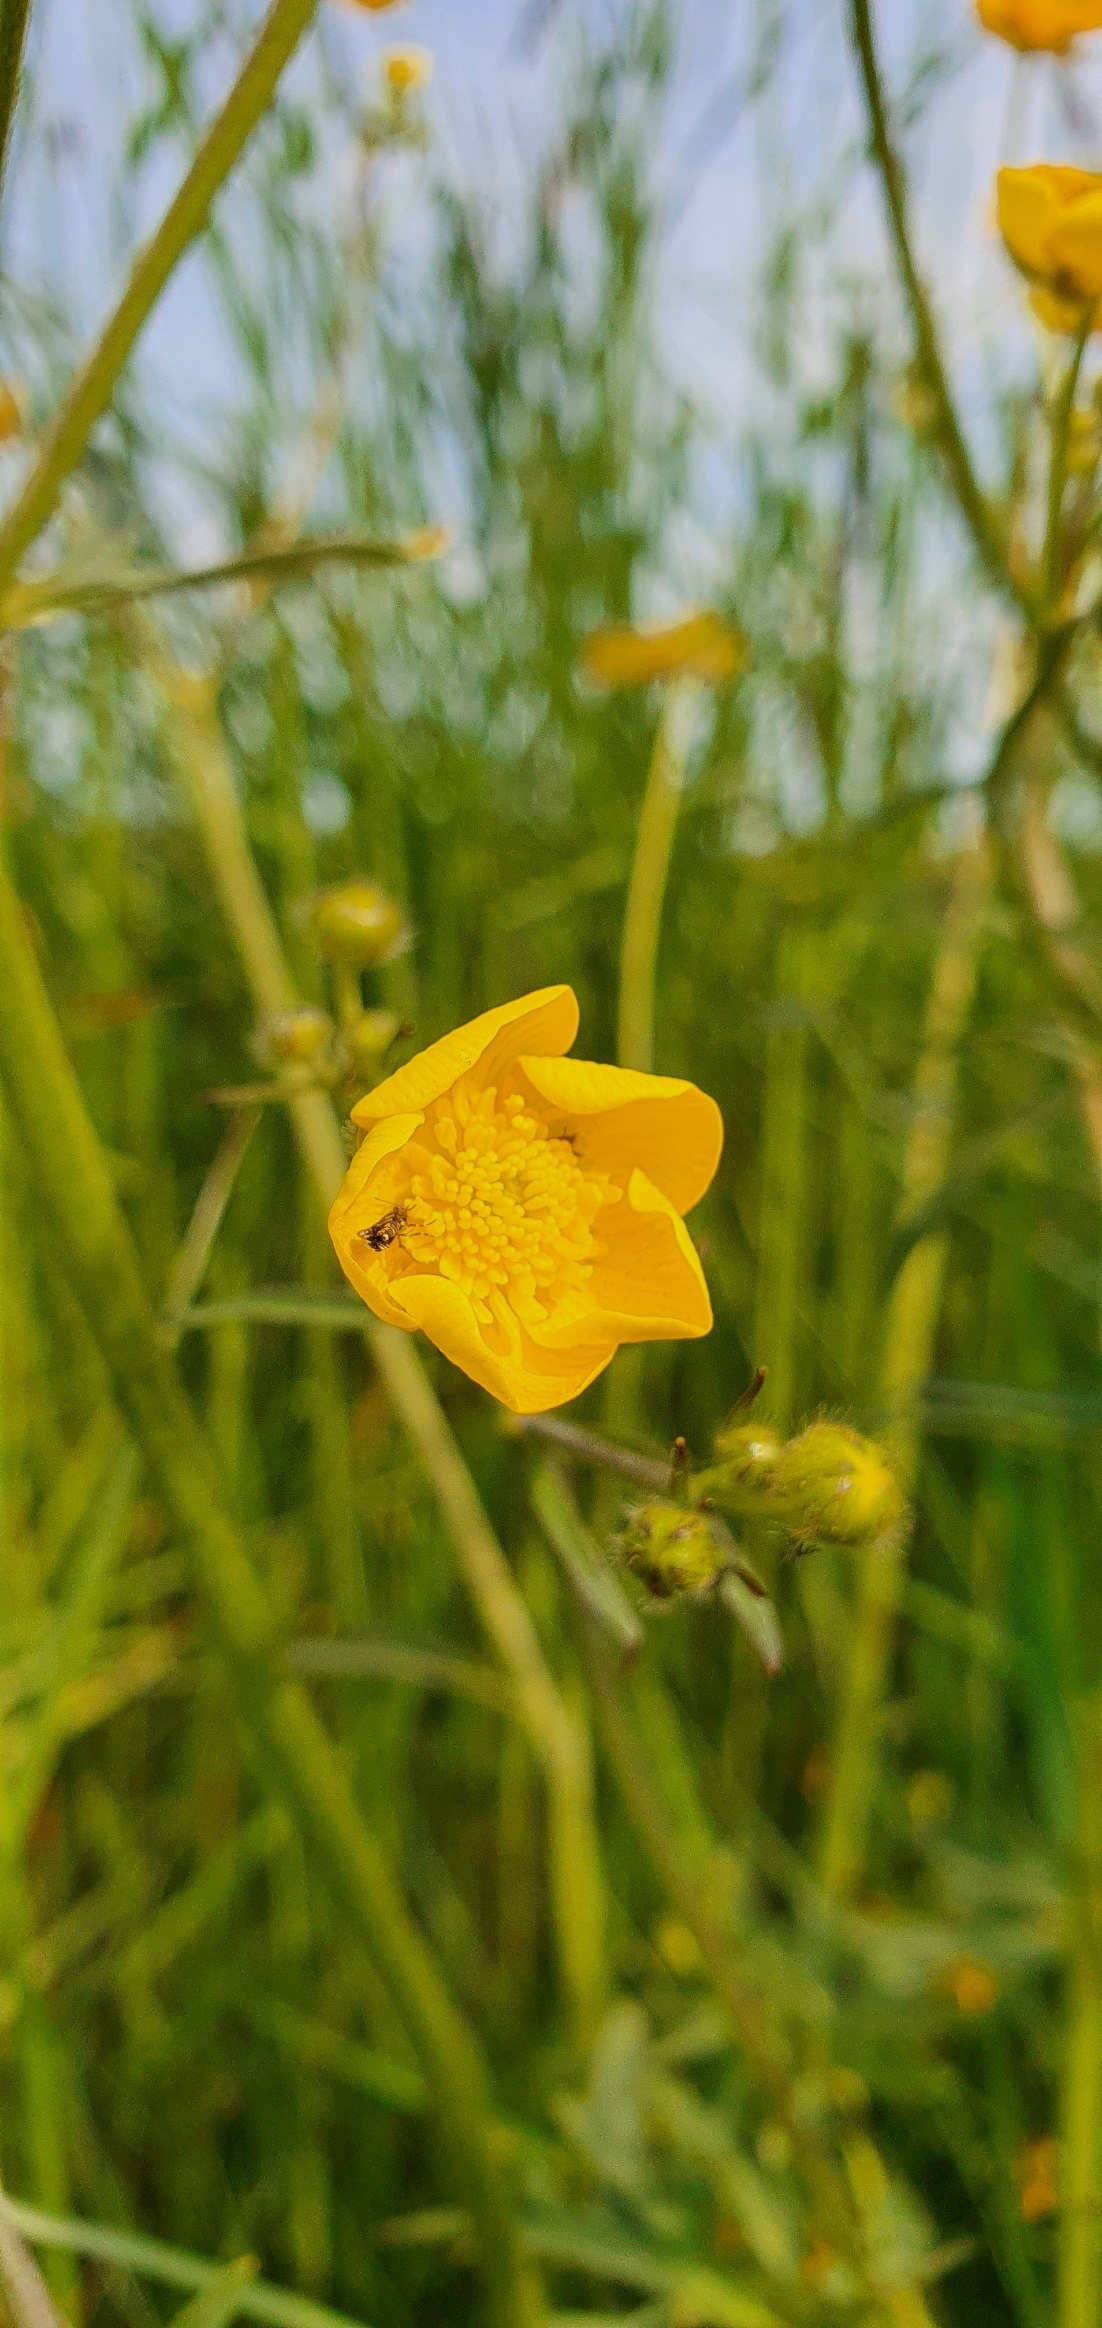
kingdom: Plantae
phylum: Tracheophyta
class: Magnoliopsida
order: Ranunculales
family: Ranunculaceae
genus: Ranunculus
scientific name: Ranunculus acris
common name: Bidende ranunkel
